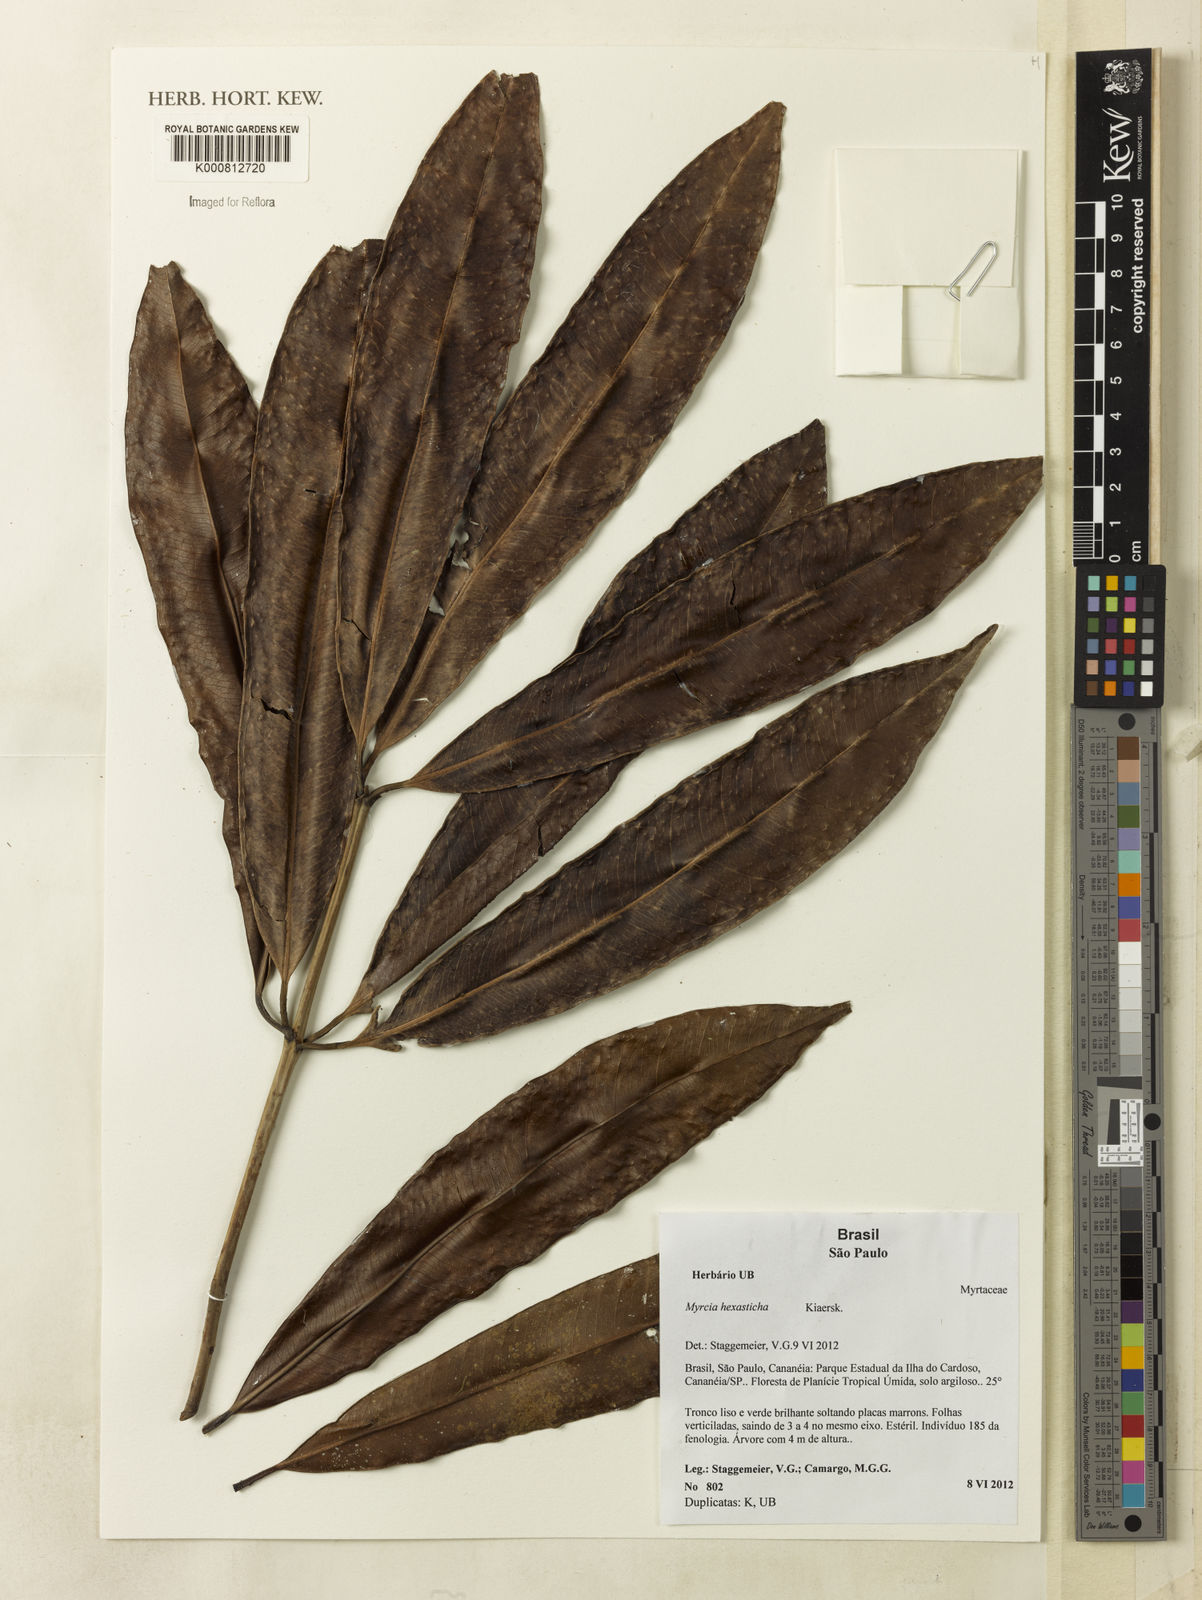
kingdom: Plantae
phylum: Tracheophyta
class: Magnoliopsida
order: Myrtales
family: Myrtaceae
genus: Myrcia
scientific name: Myrcia hexasticha
